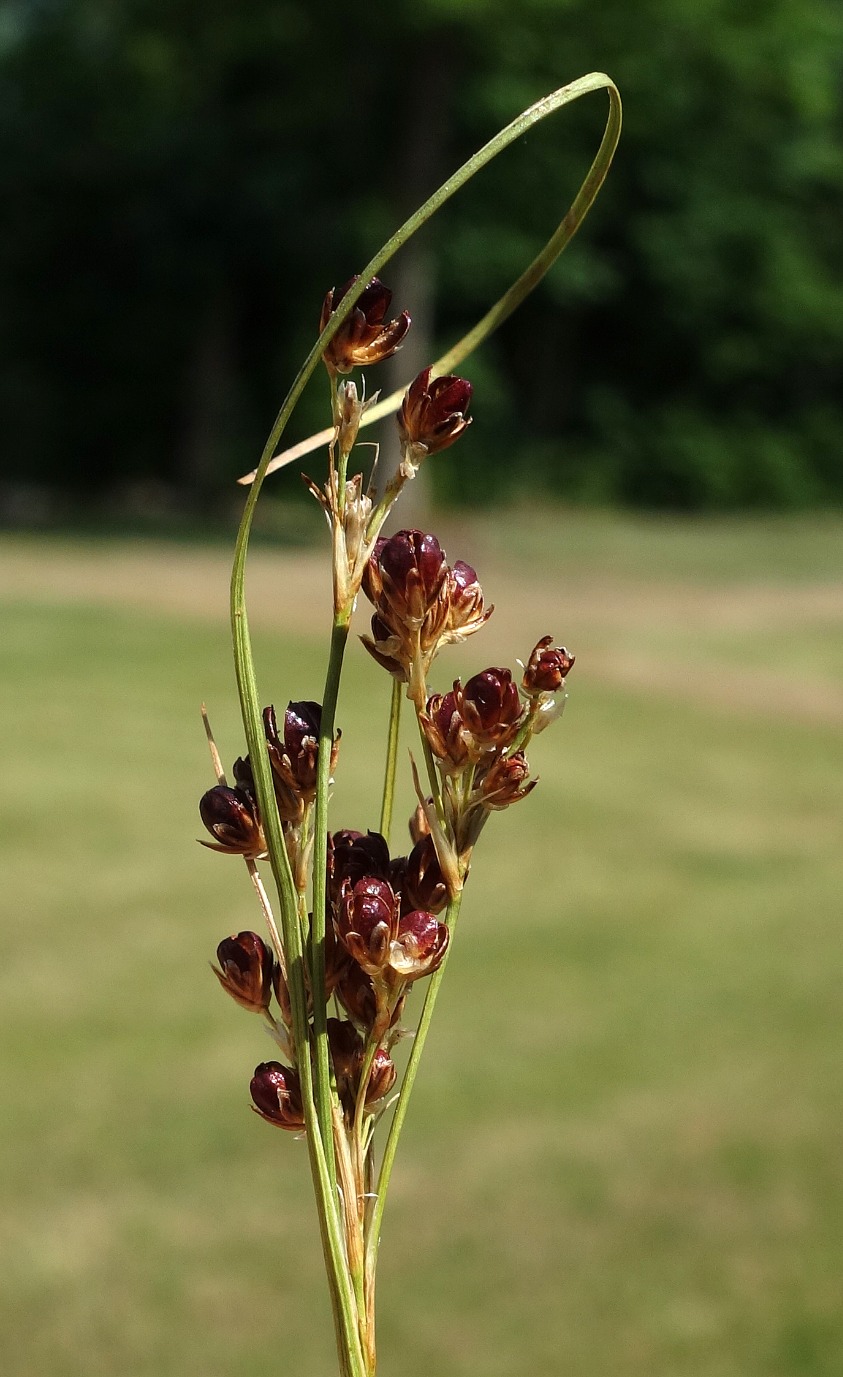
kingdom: Plantae
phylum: Tracheophyta
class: Liliopsida
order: Poales
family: Juncaceae
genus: Juncus
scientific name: Juncus compressus
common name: Fladstrået siv
